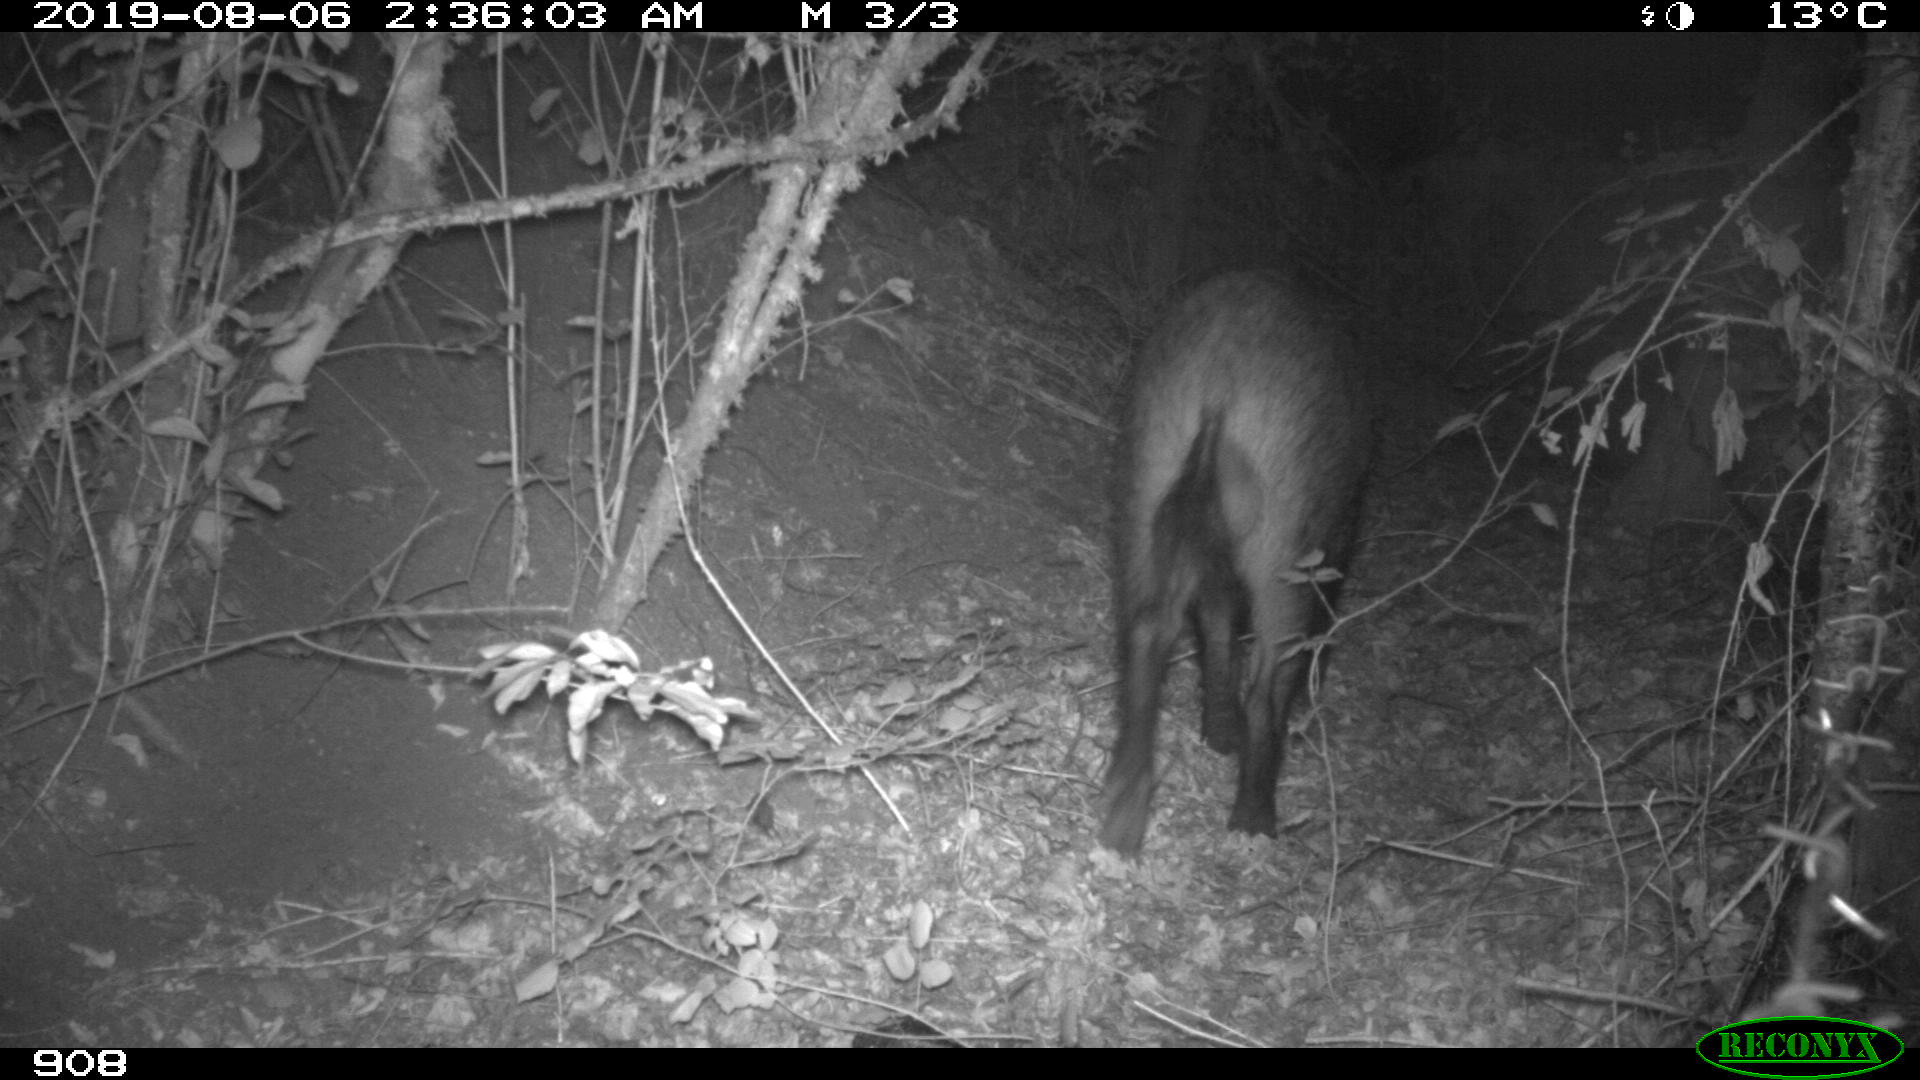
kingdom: Animalia
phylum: Chordata
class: Mammalia
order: Artiodactyla
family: Suidae
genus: Sus
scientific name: Sus scrofa
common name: Wild boar
